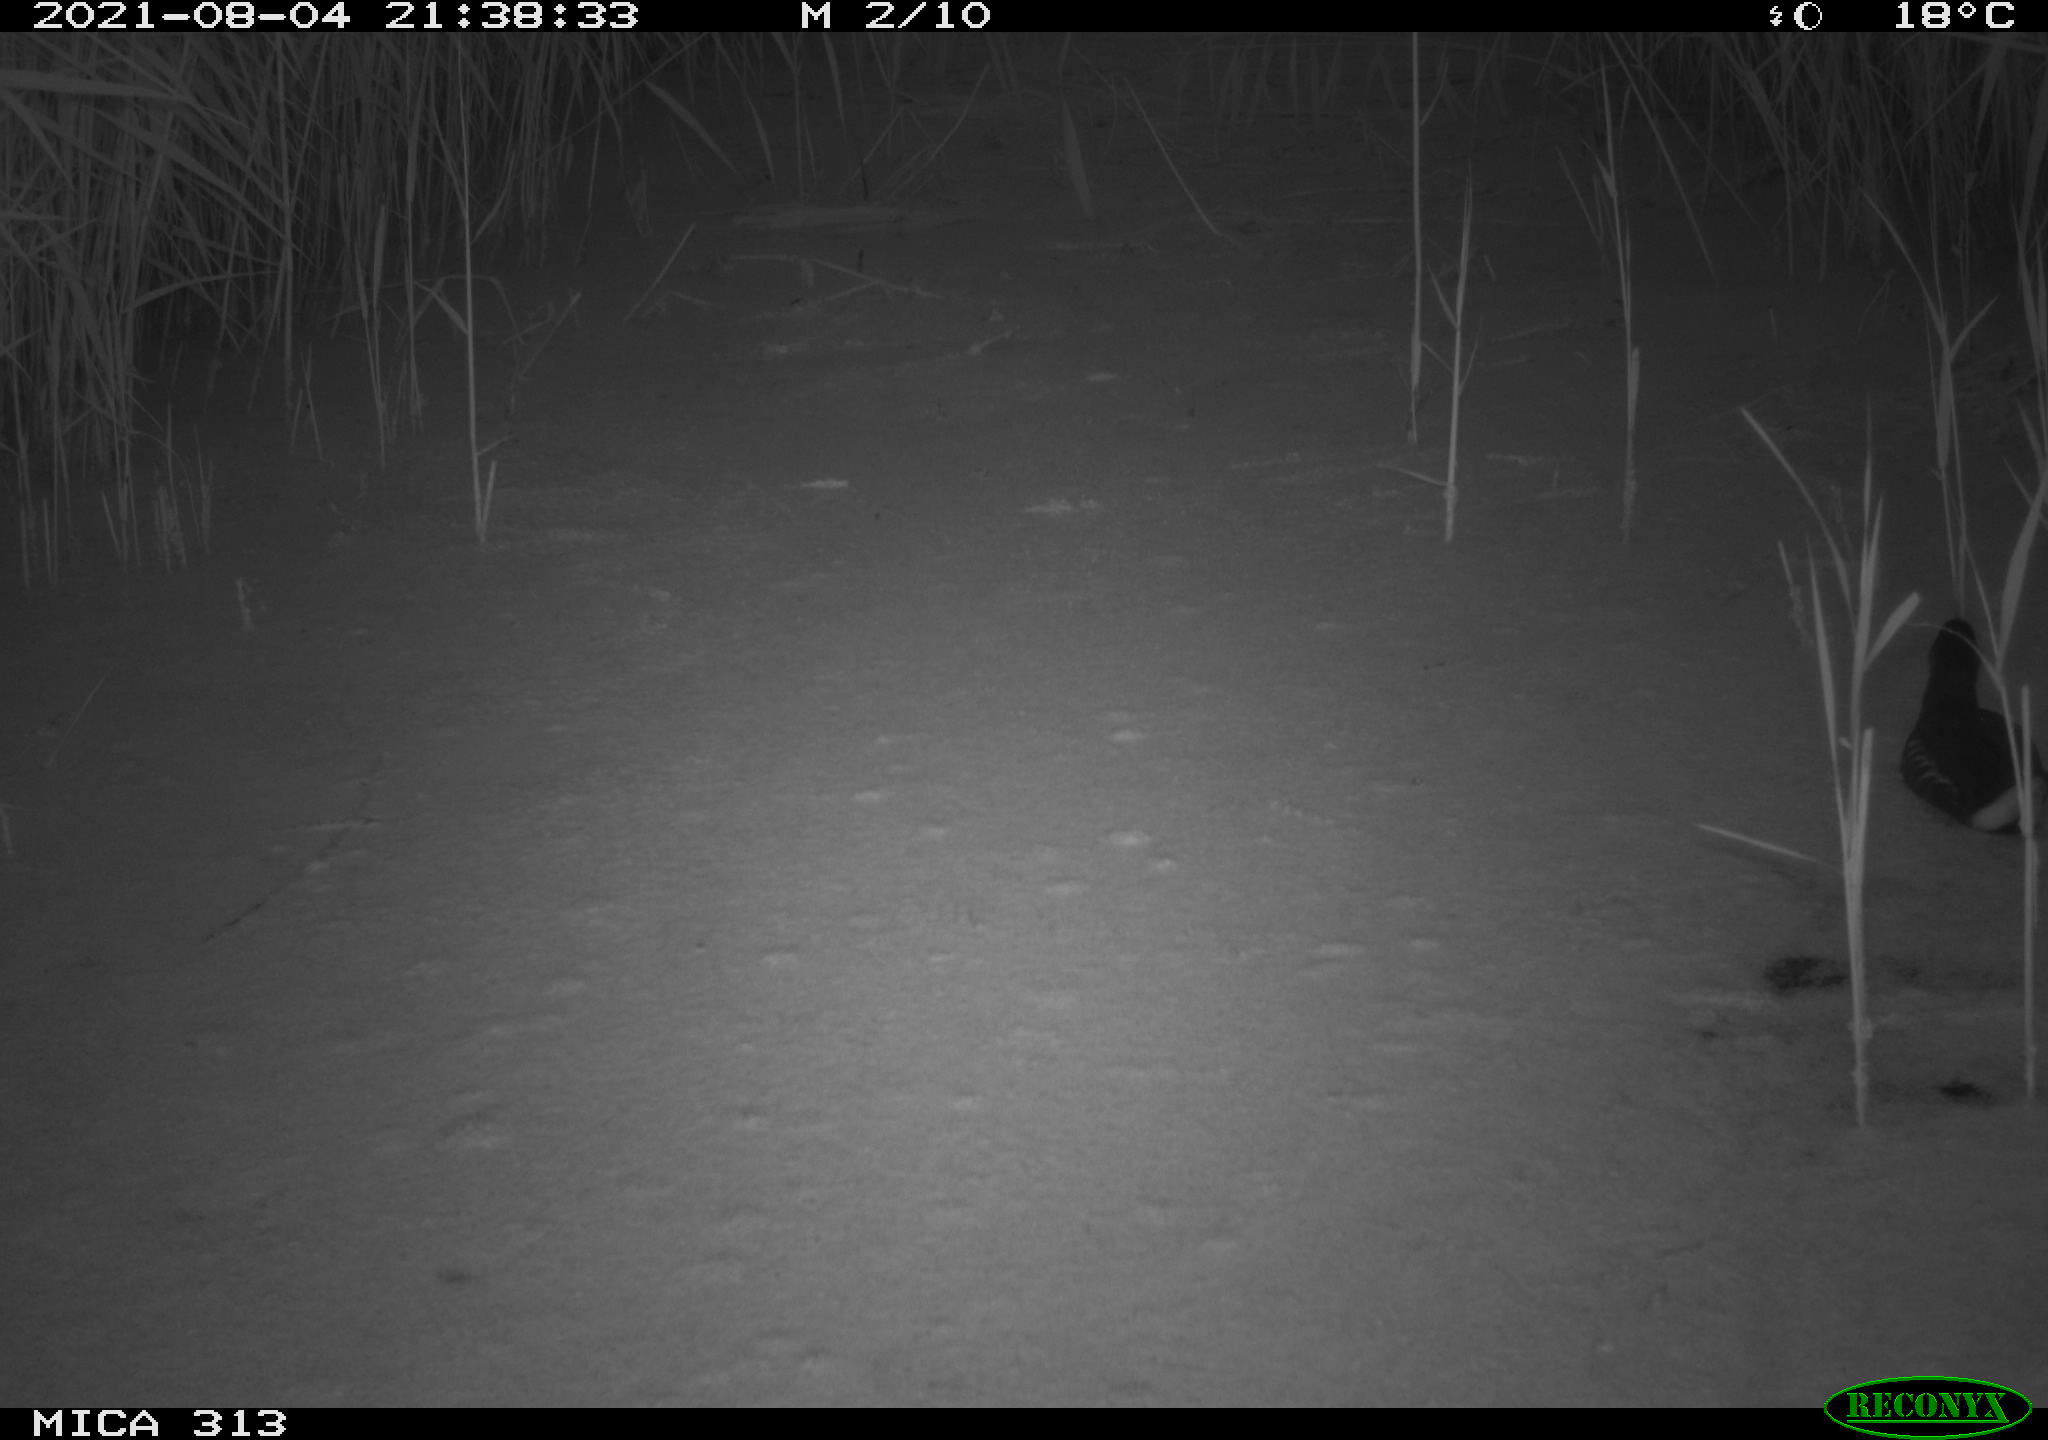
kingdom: Animalia
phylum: Chordata
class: Aves
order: Gruiformes
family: Rallidae
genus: Gallinula
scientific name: Gallinula chloropus
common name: Common moorhen
